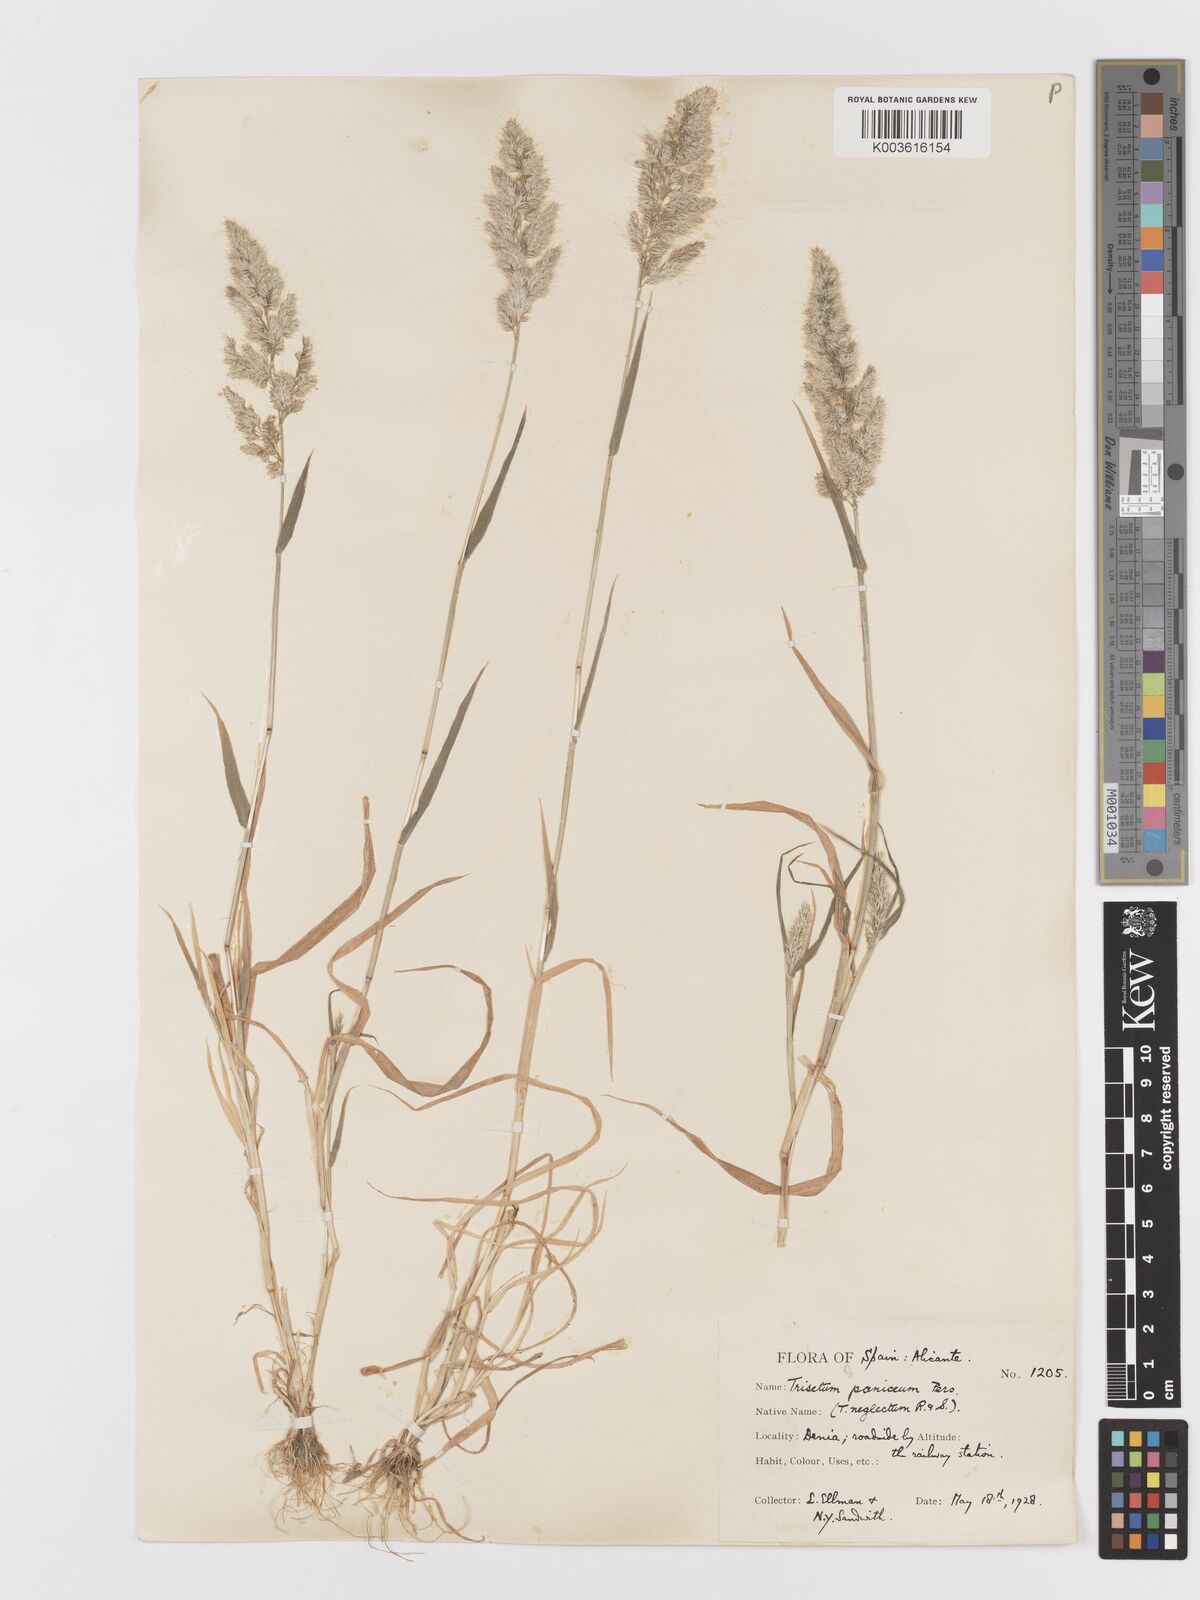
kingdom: Plantae
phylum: Tracheophyta
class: Liliopsida
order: Poales
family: Poaceae
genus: Trisetaria
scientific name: Trisetaria panicea
